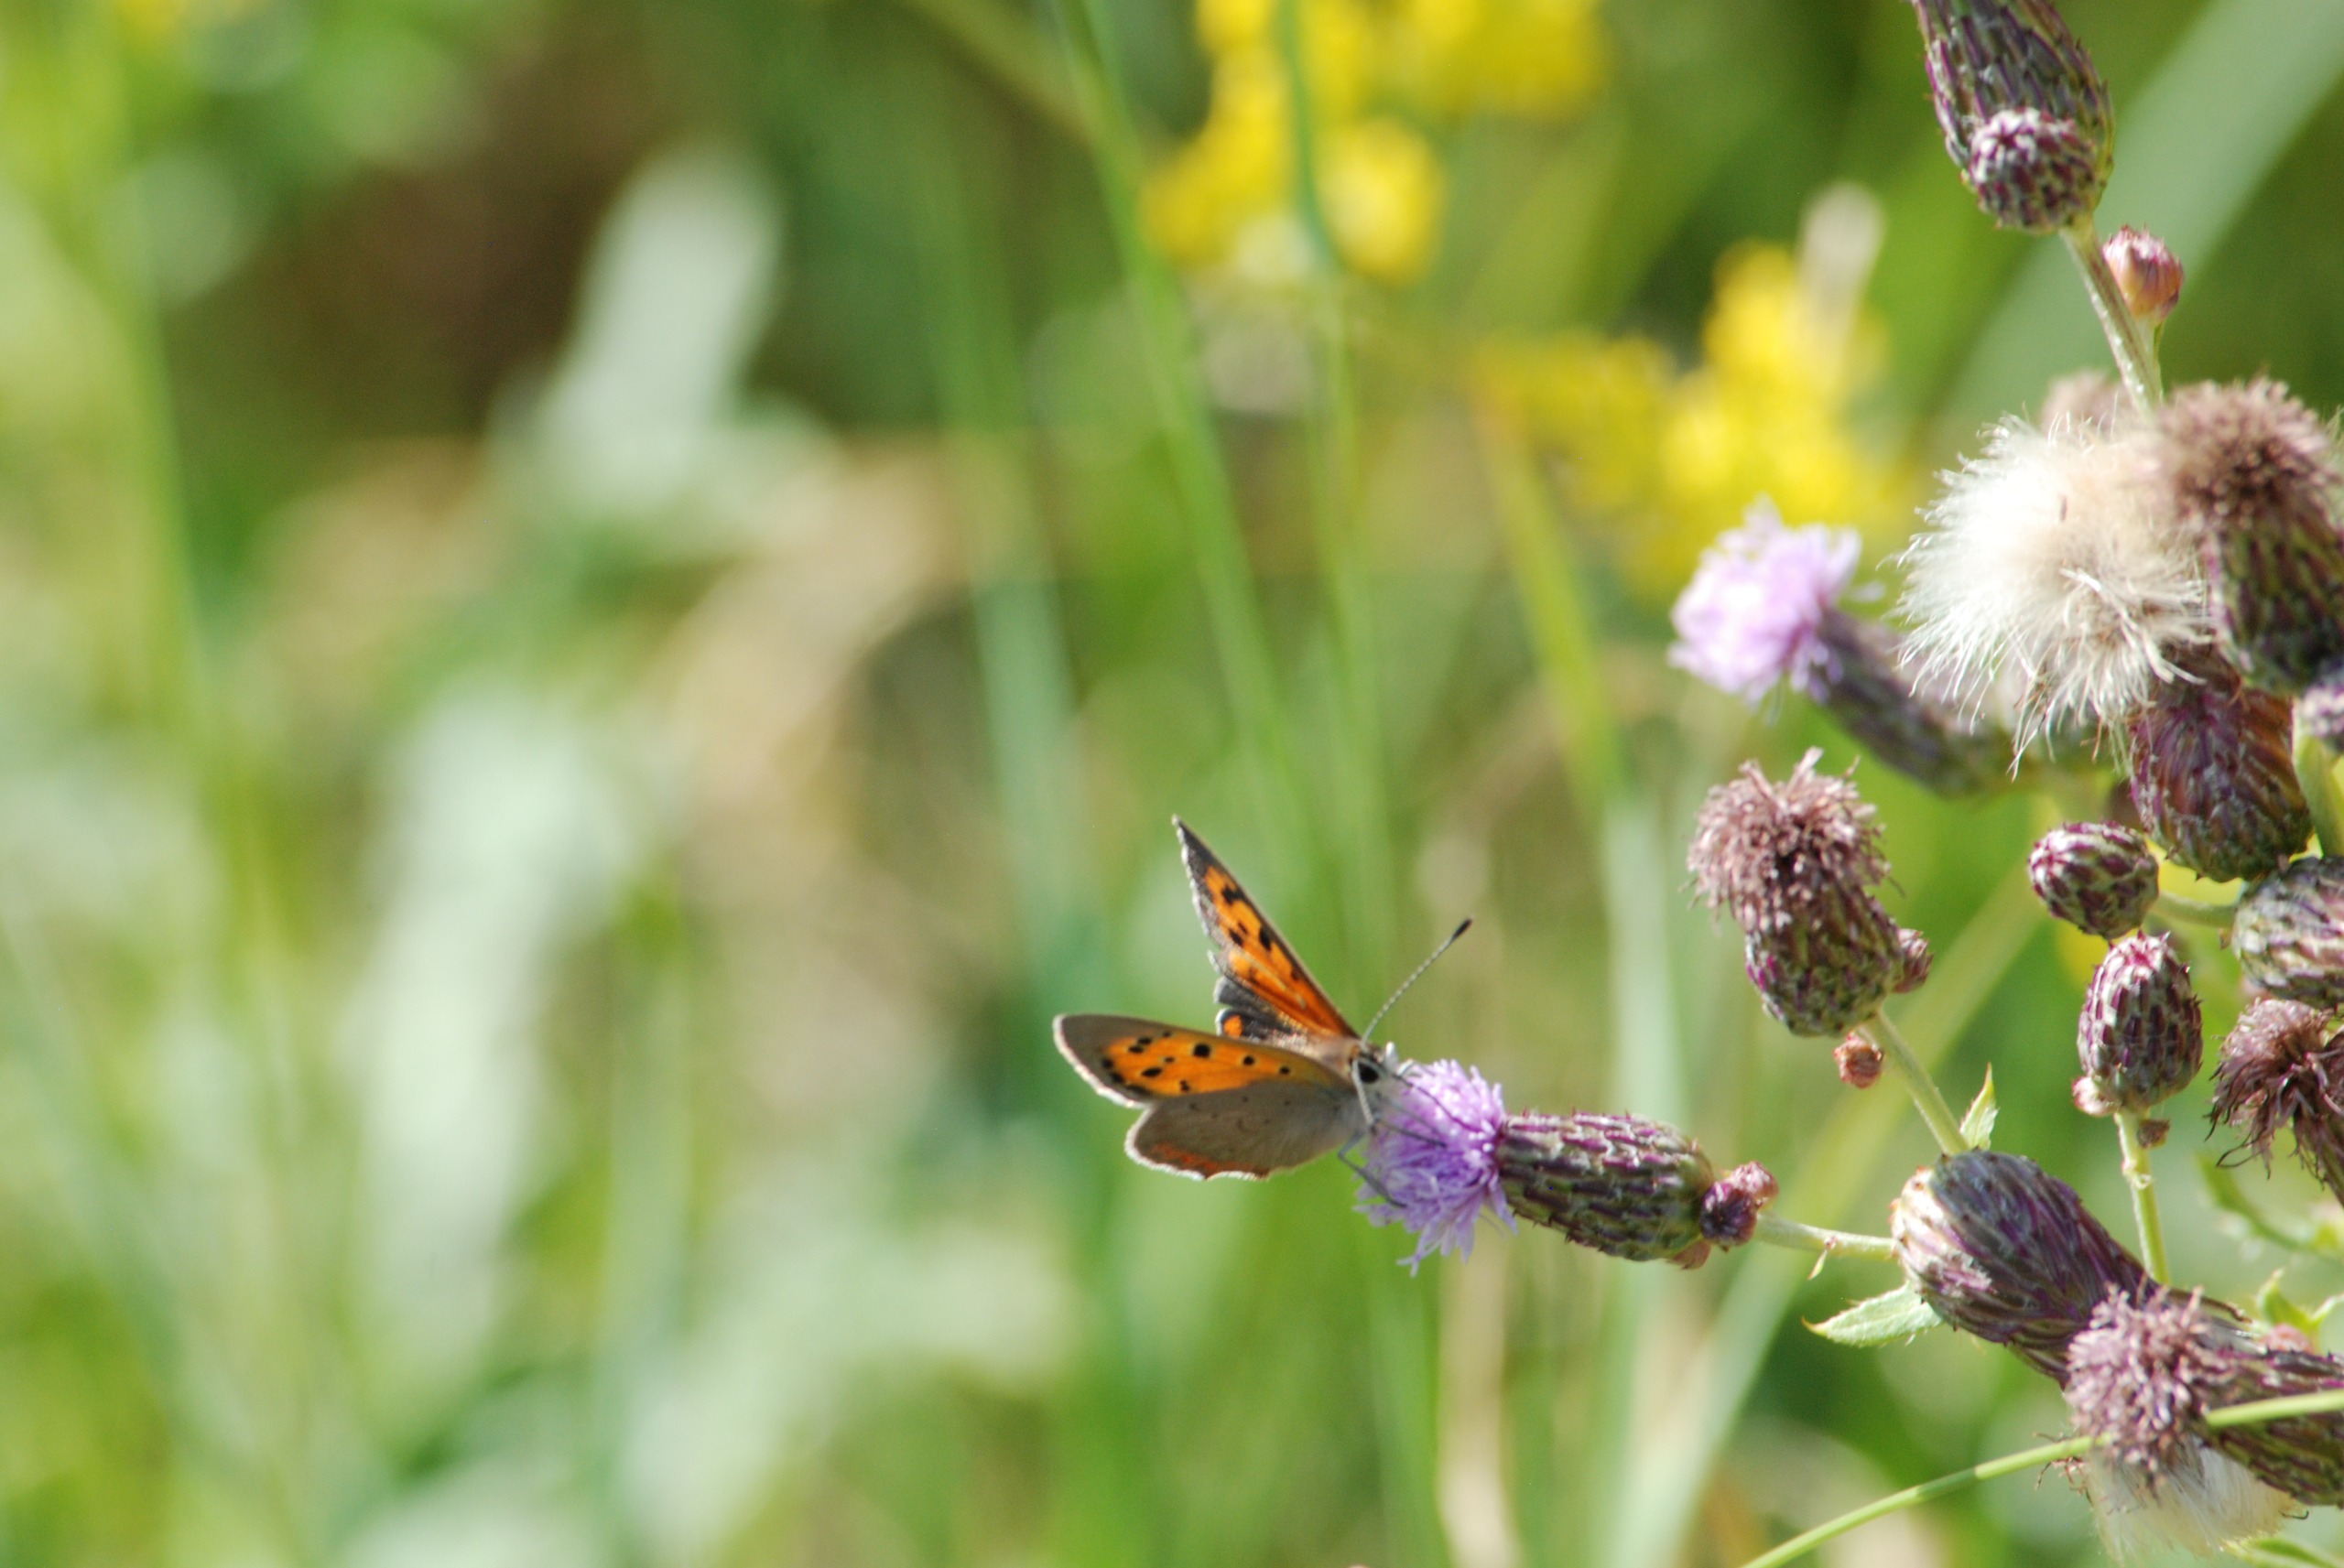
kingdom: Animalia
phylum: Arthropoda
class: Insecta
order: Lepidoptera
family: Lycaenidae
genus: Lycaena
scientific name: Lycaena phlaeas
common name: Lille ildfugl
